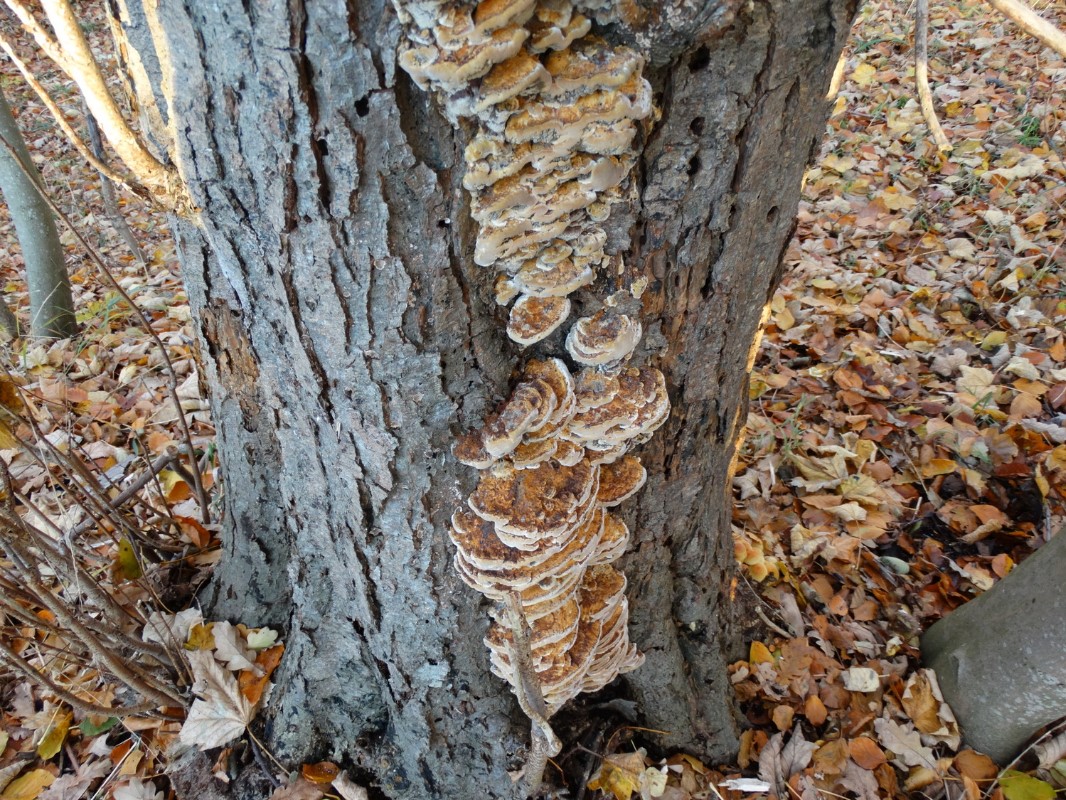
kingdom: Fungi
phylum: Basidiomycota
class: Agaricomycetes
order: Hymenochaetales
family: Hymenochaetaceae
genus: Xanthoporia
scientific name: Xanthoporia radiata
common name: elle-spejlporesvamp
